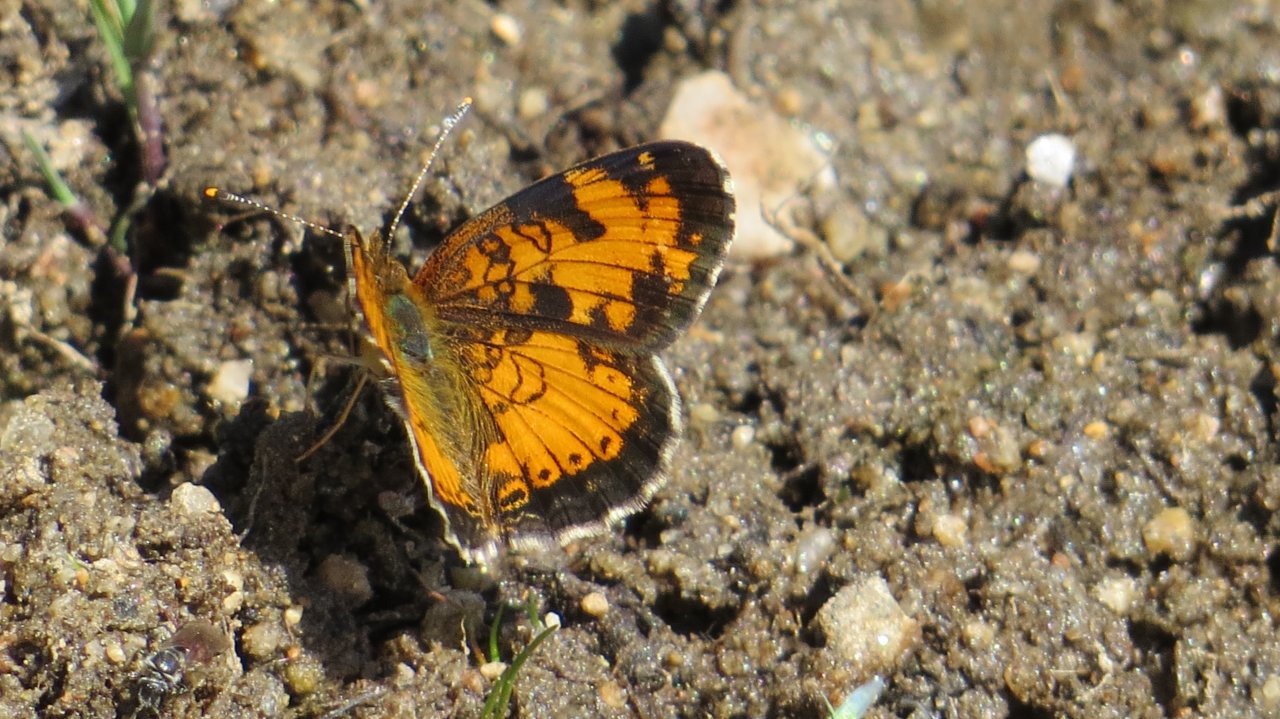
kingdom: Animalia
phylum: Arthropoda
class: Insecta
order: Lepidoptera
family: Nymphalidae
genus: Phyciodes
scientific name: Phyciodes tharos
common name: Northern Crescent
